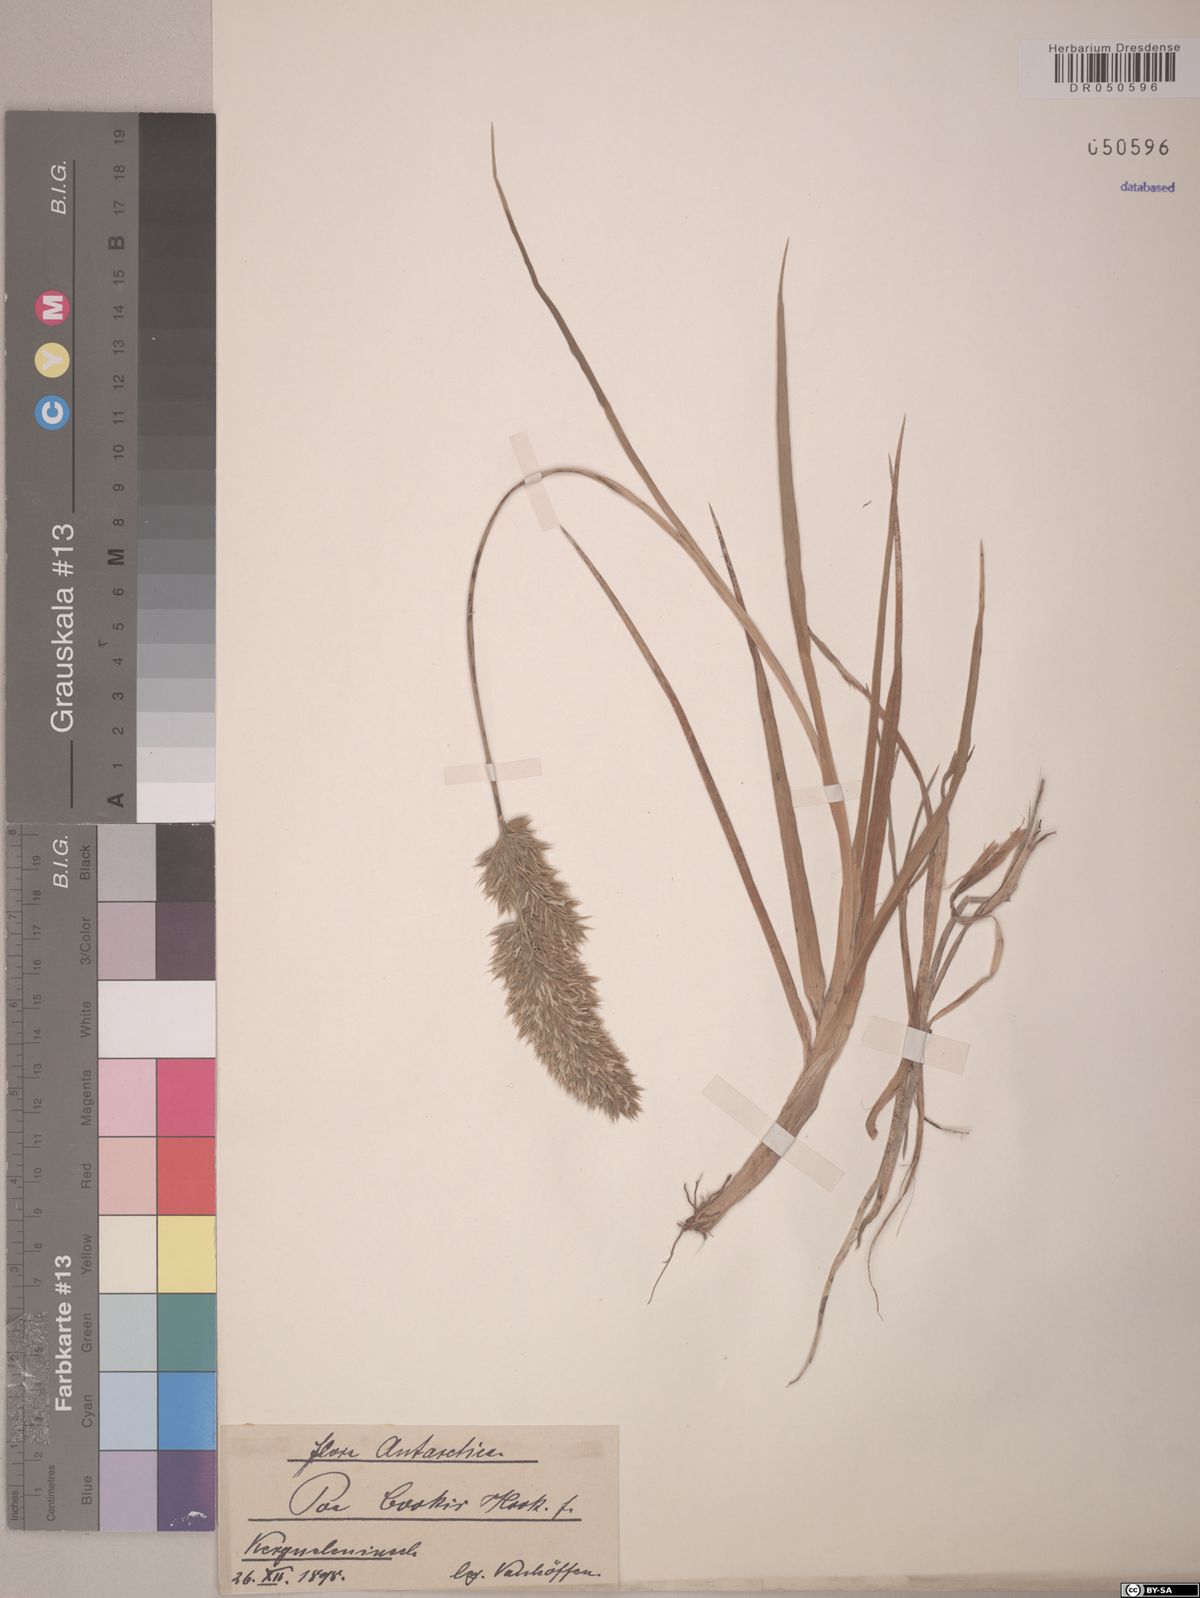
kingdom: Plantae
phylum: Tracheophyta
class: Liliopsida
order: Poales
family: Poaceae
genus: Poa
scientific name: Poa cookii
